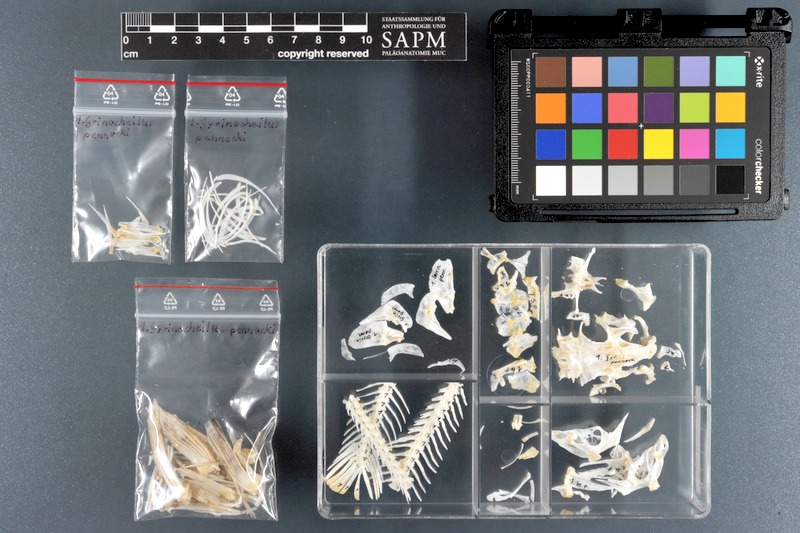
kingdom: Animalia
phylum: Chordata
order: Cypriniformes
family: Gyrinocheilidae
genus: Gyrinocheilus
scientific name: Gyrinocheilus pennocki
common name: Spotted algae eater
